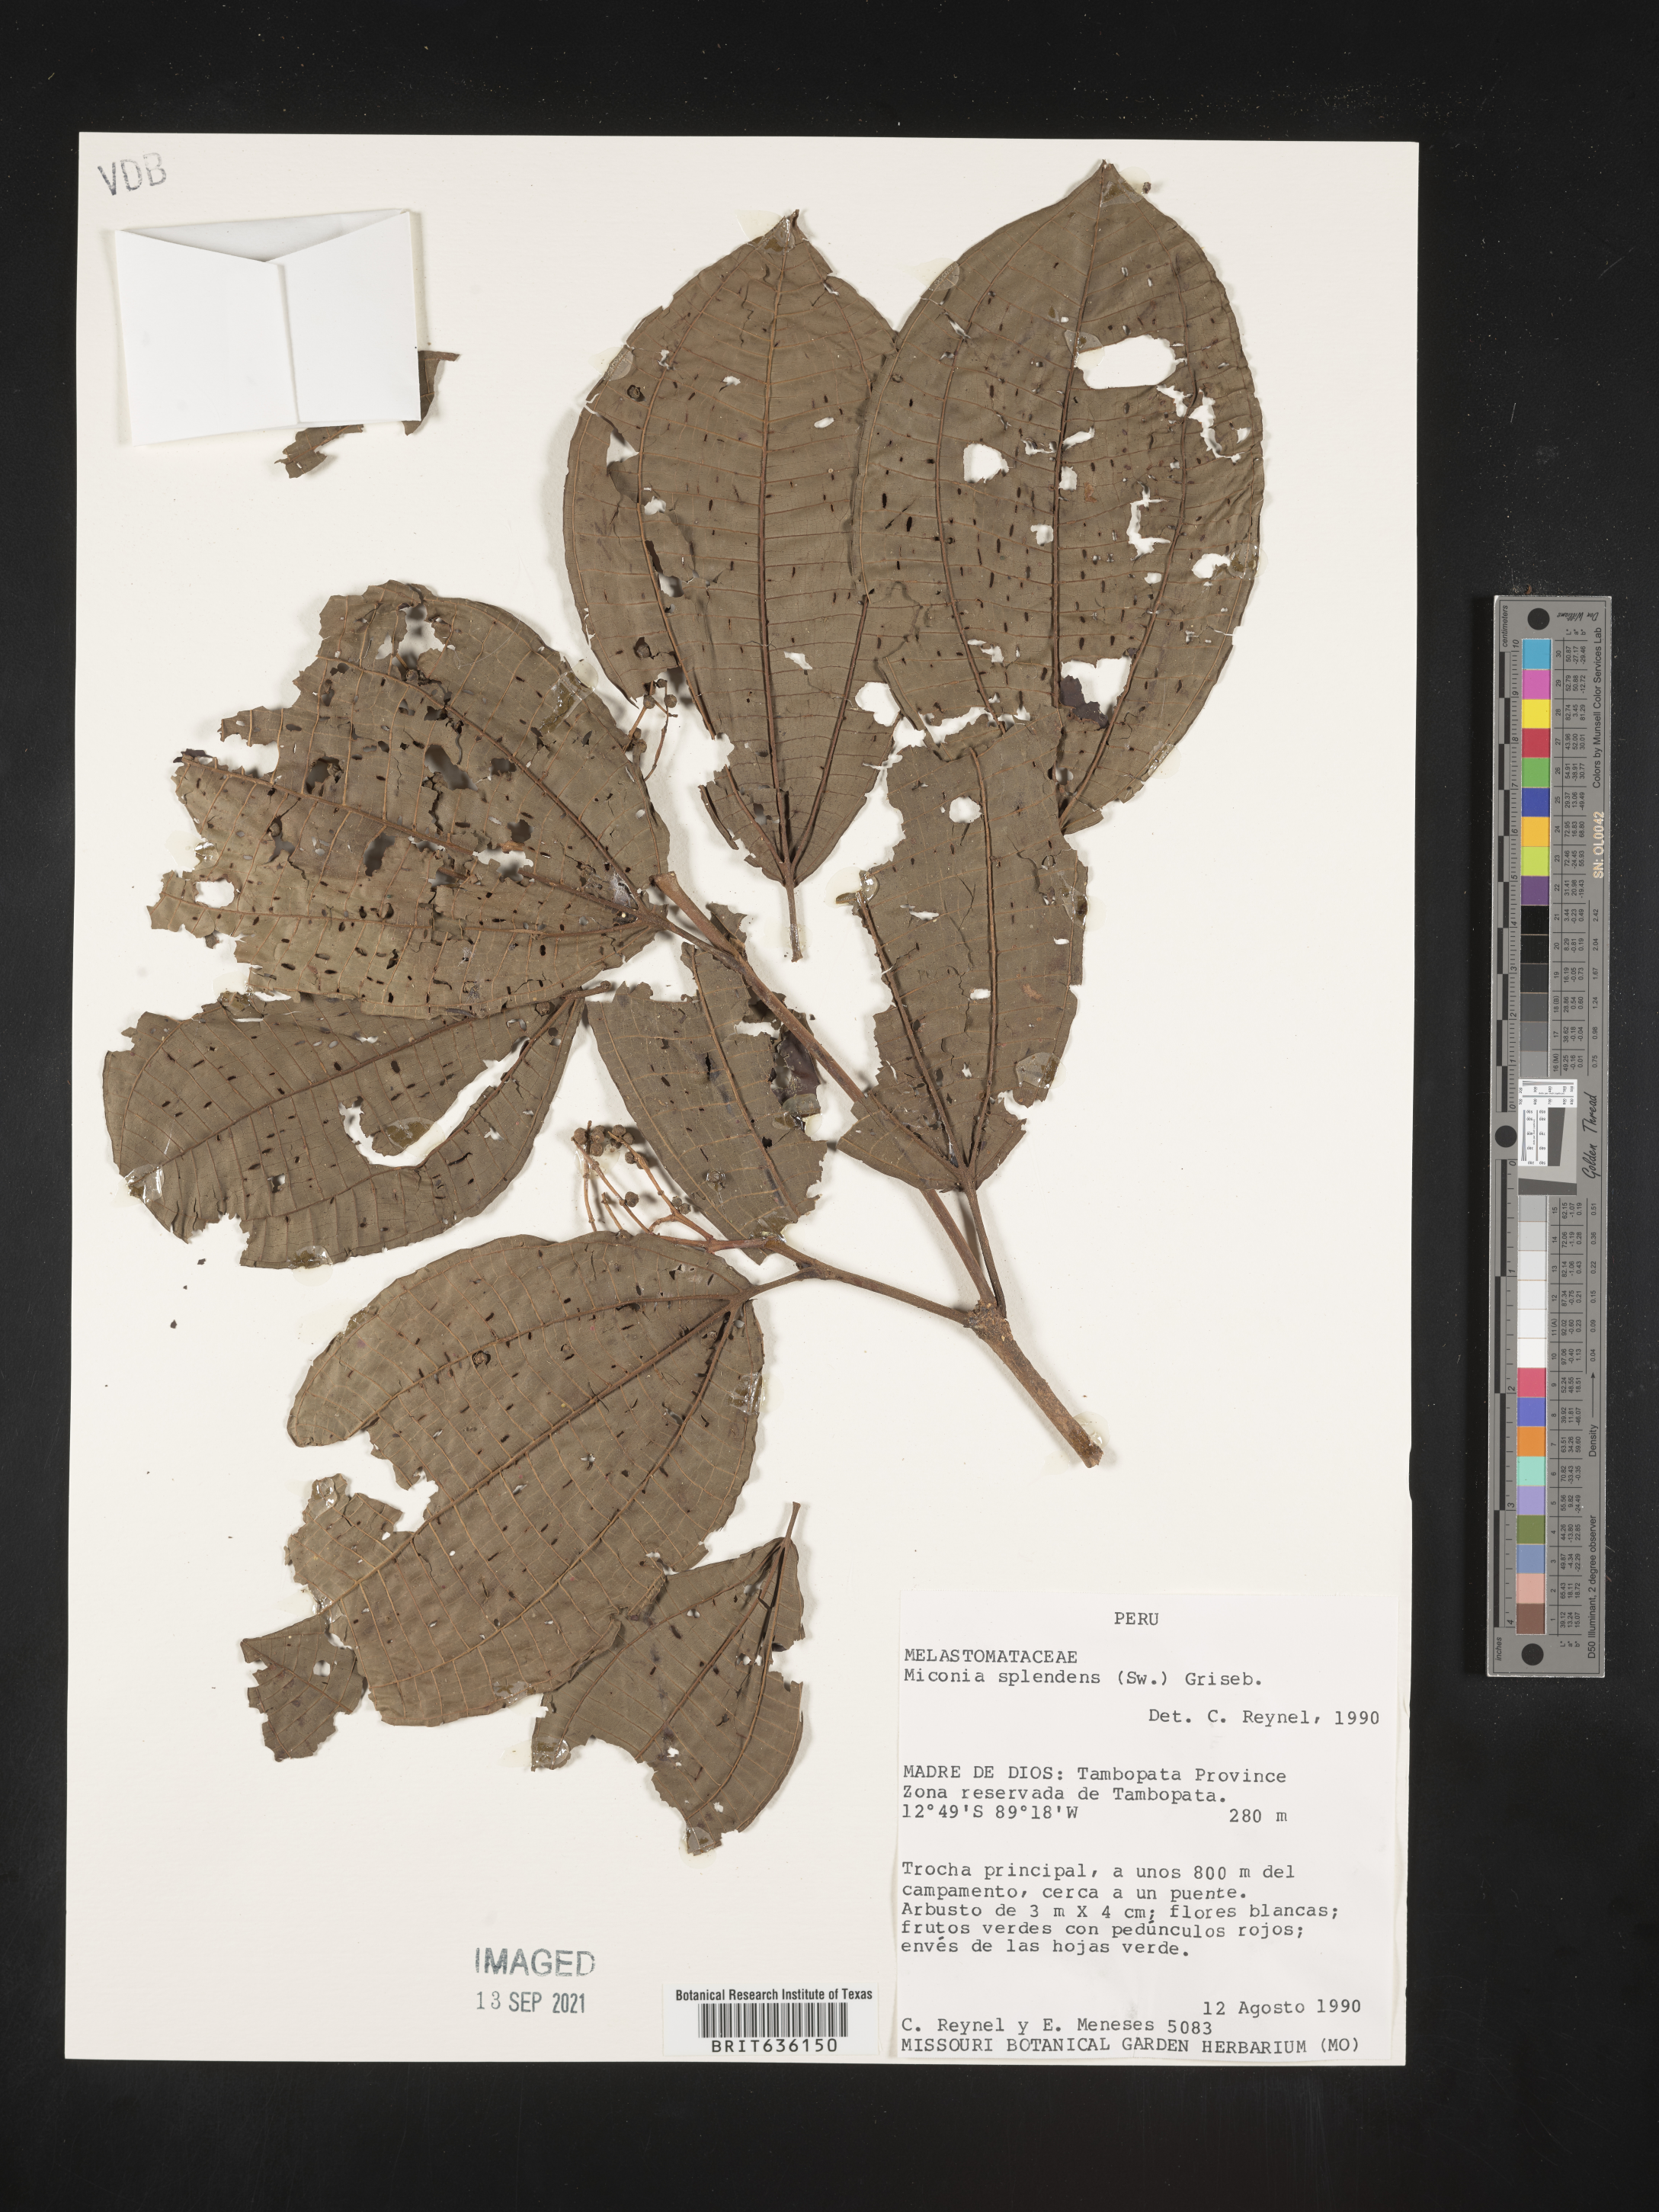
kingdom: Plantae
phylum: Tracheophyta
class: Magnoliopsida
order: Myrtales
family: Melastomataceae
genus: Miconia
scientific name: Miconia
